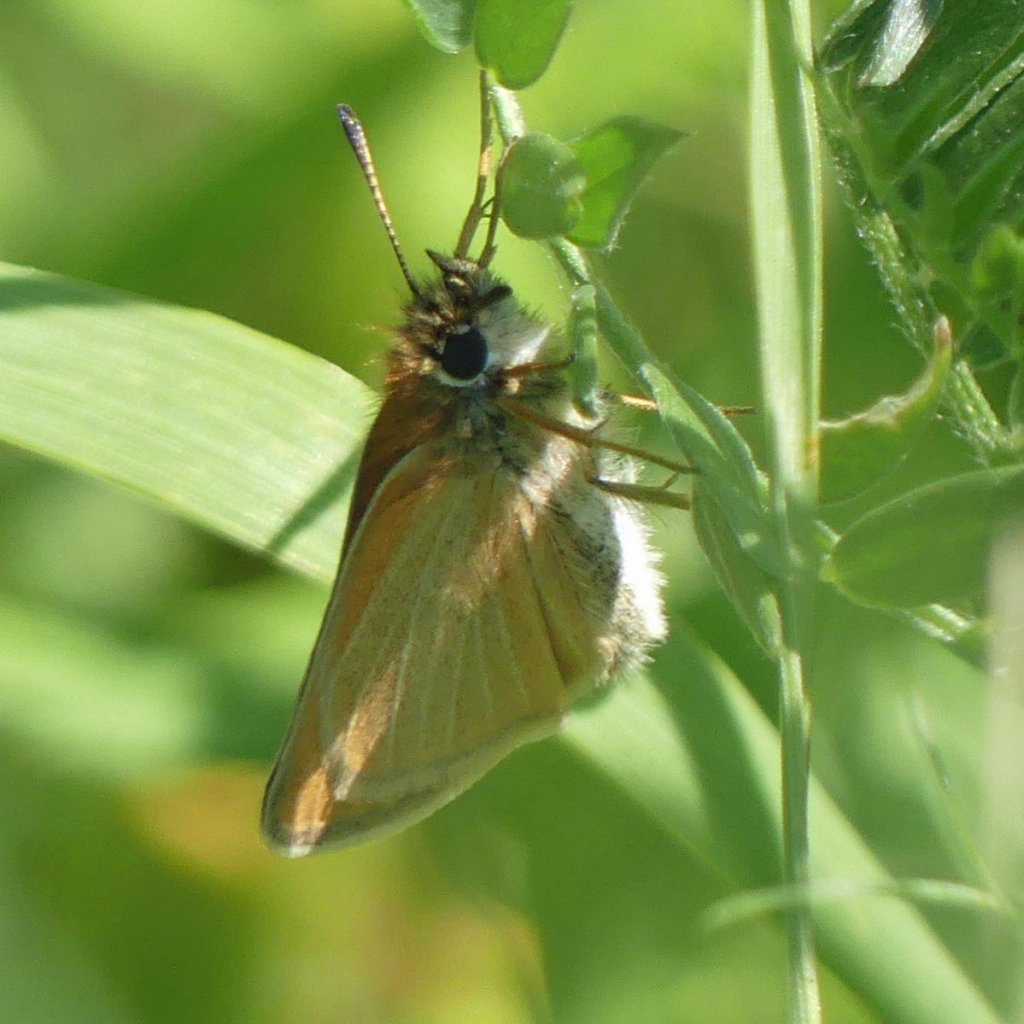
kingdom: Animalia
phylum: Arthropoda
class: Insecta
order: Lepidoptera
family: Hesperiidae
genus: Thymelicus
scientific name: Thymelicus lineola
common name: European Skipper
